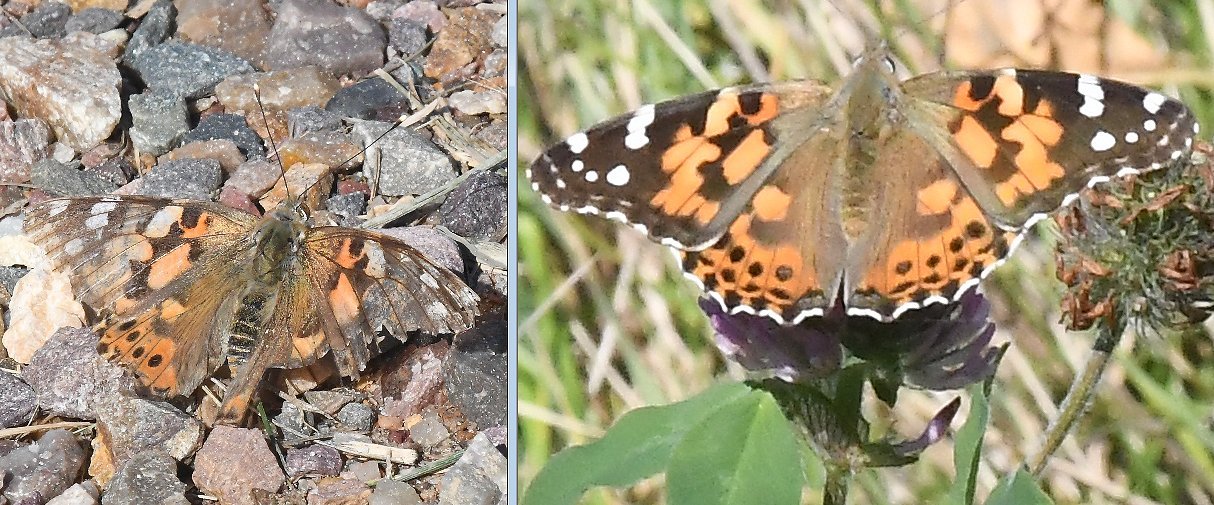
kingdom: Animalia
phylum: Arthropoda
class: Insecta
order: Lepidoptera
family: Nymphalidae
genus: Vanessa
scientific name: Vanessa cardui
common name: Painted Lady
